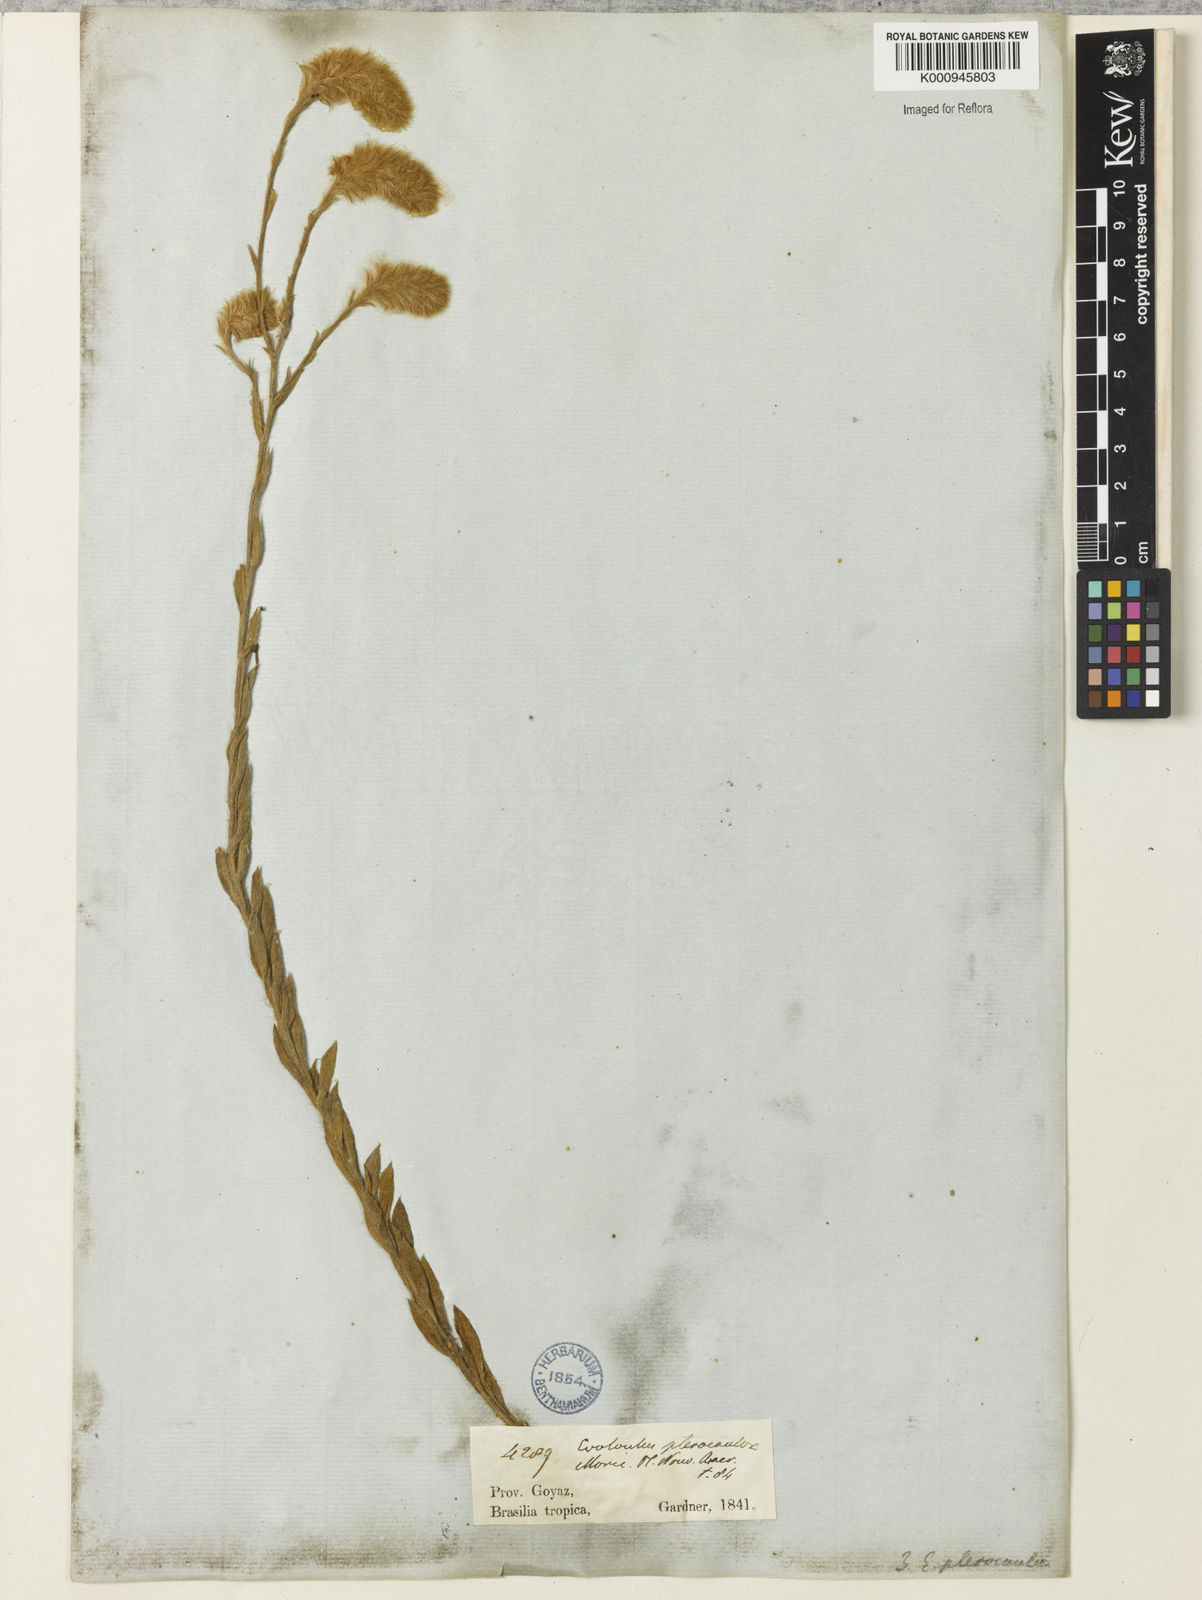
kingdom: Plantae
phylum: Tracheophyta
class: Magnoliopsida
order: Solanales
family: Convolvulaceae
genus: Evolvulus
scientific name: Evolvulus pterocaulon
